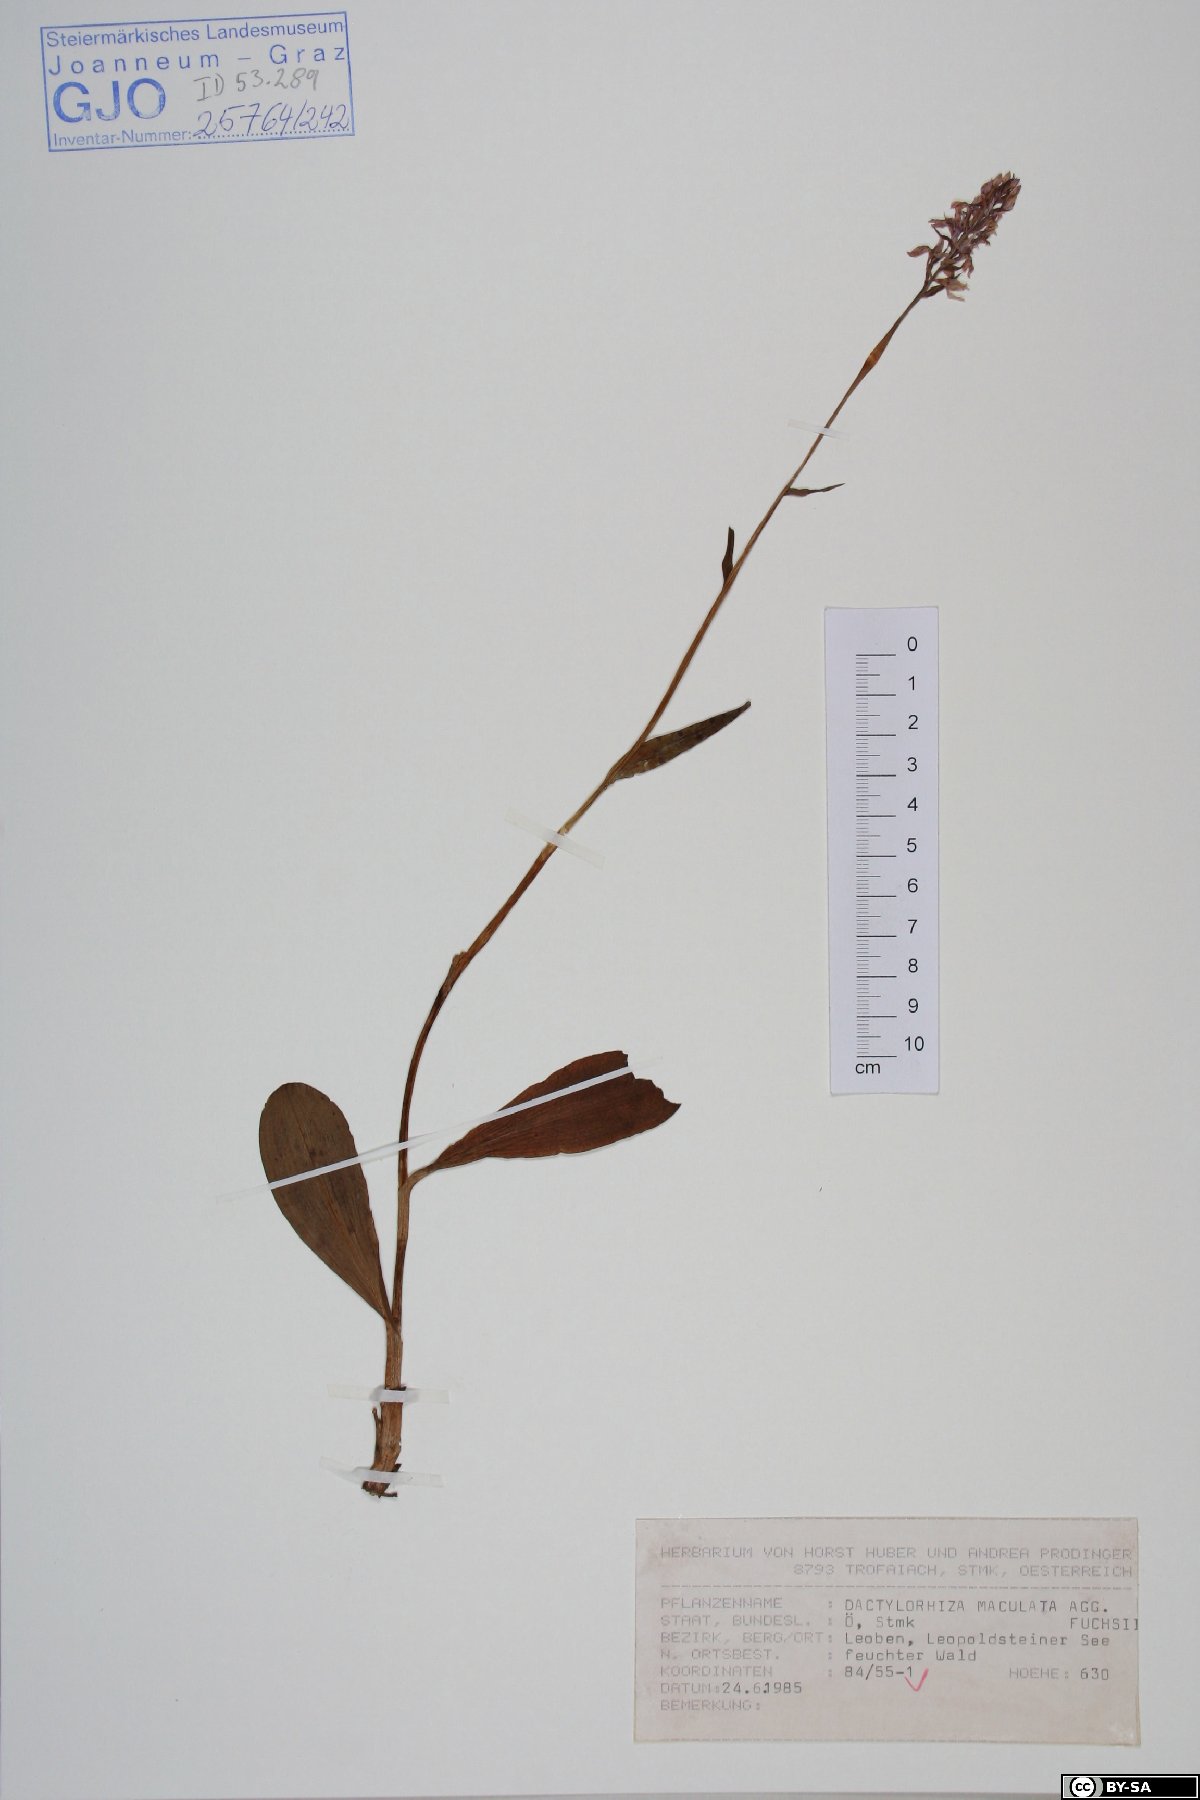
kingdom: Plantae
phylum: Tracheophyta
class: Liliopsida
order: Asparagales
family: Orchidaceae
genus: Dactylorhiza
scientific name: Dactylorhiza maculata
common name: Heath spotted-orchid
